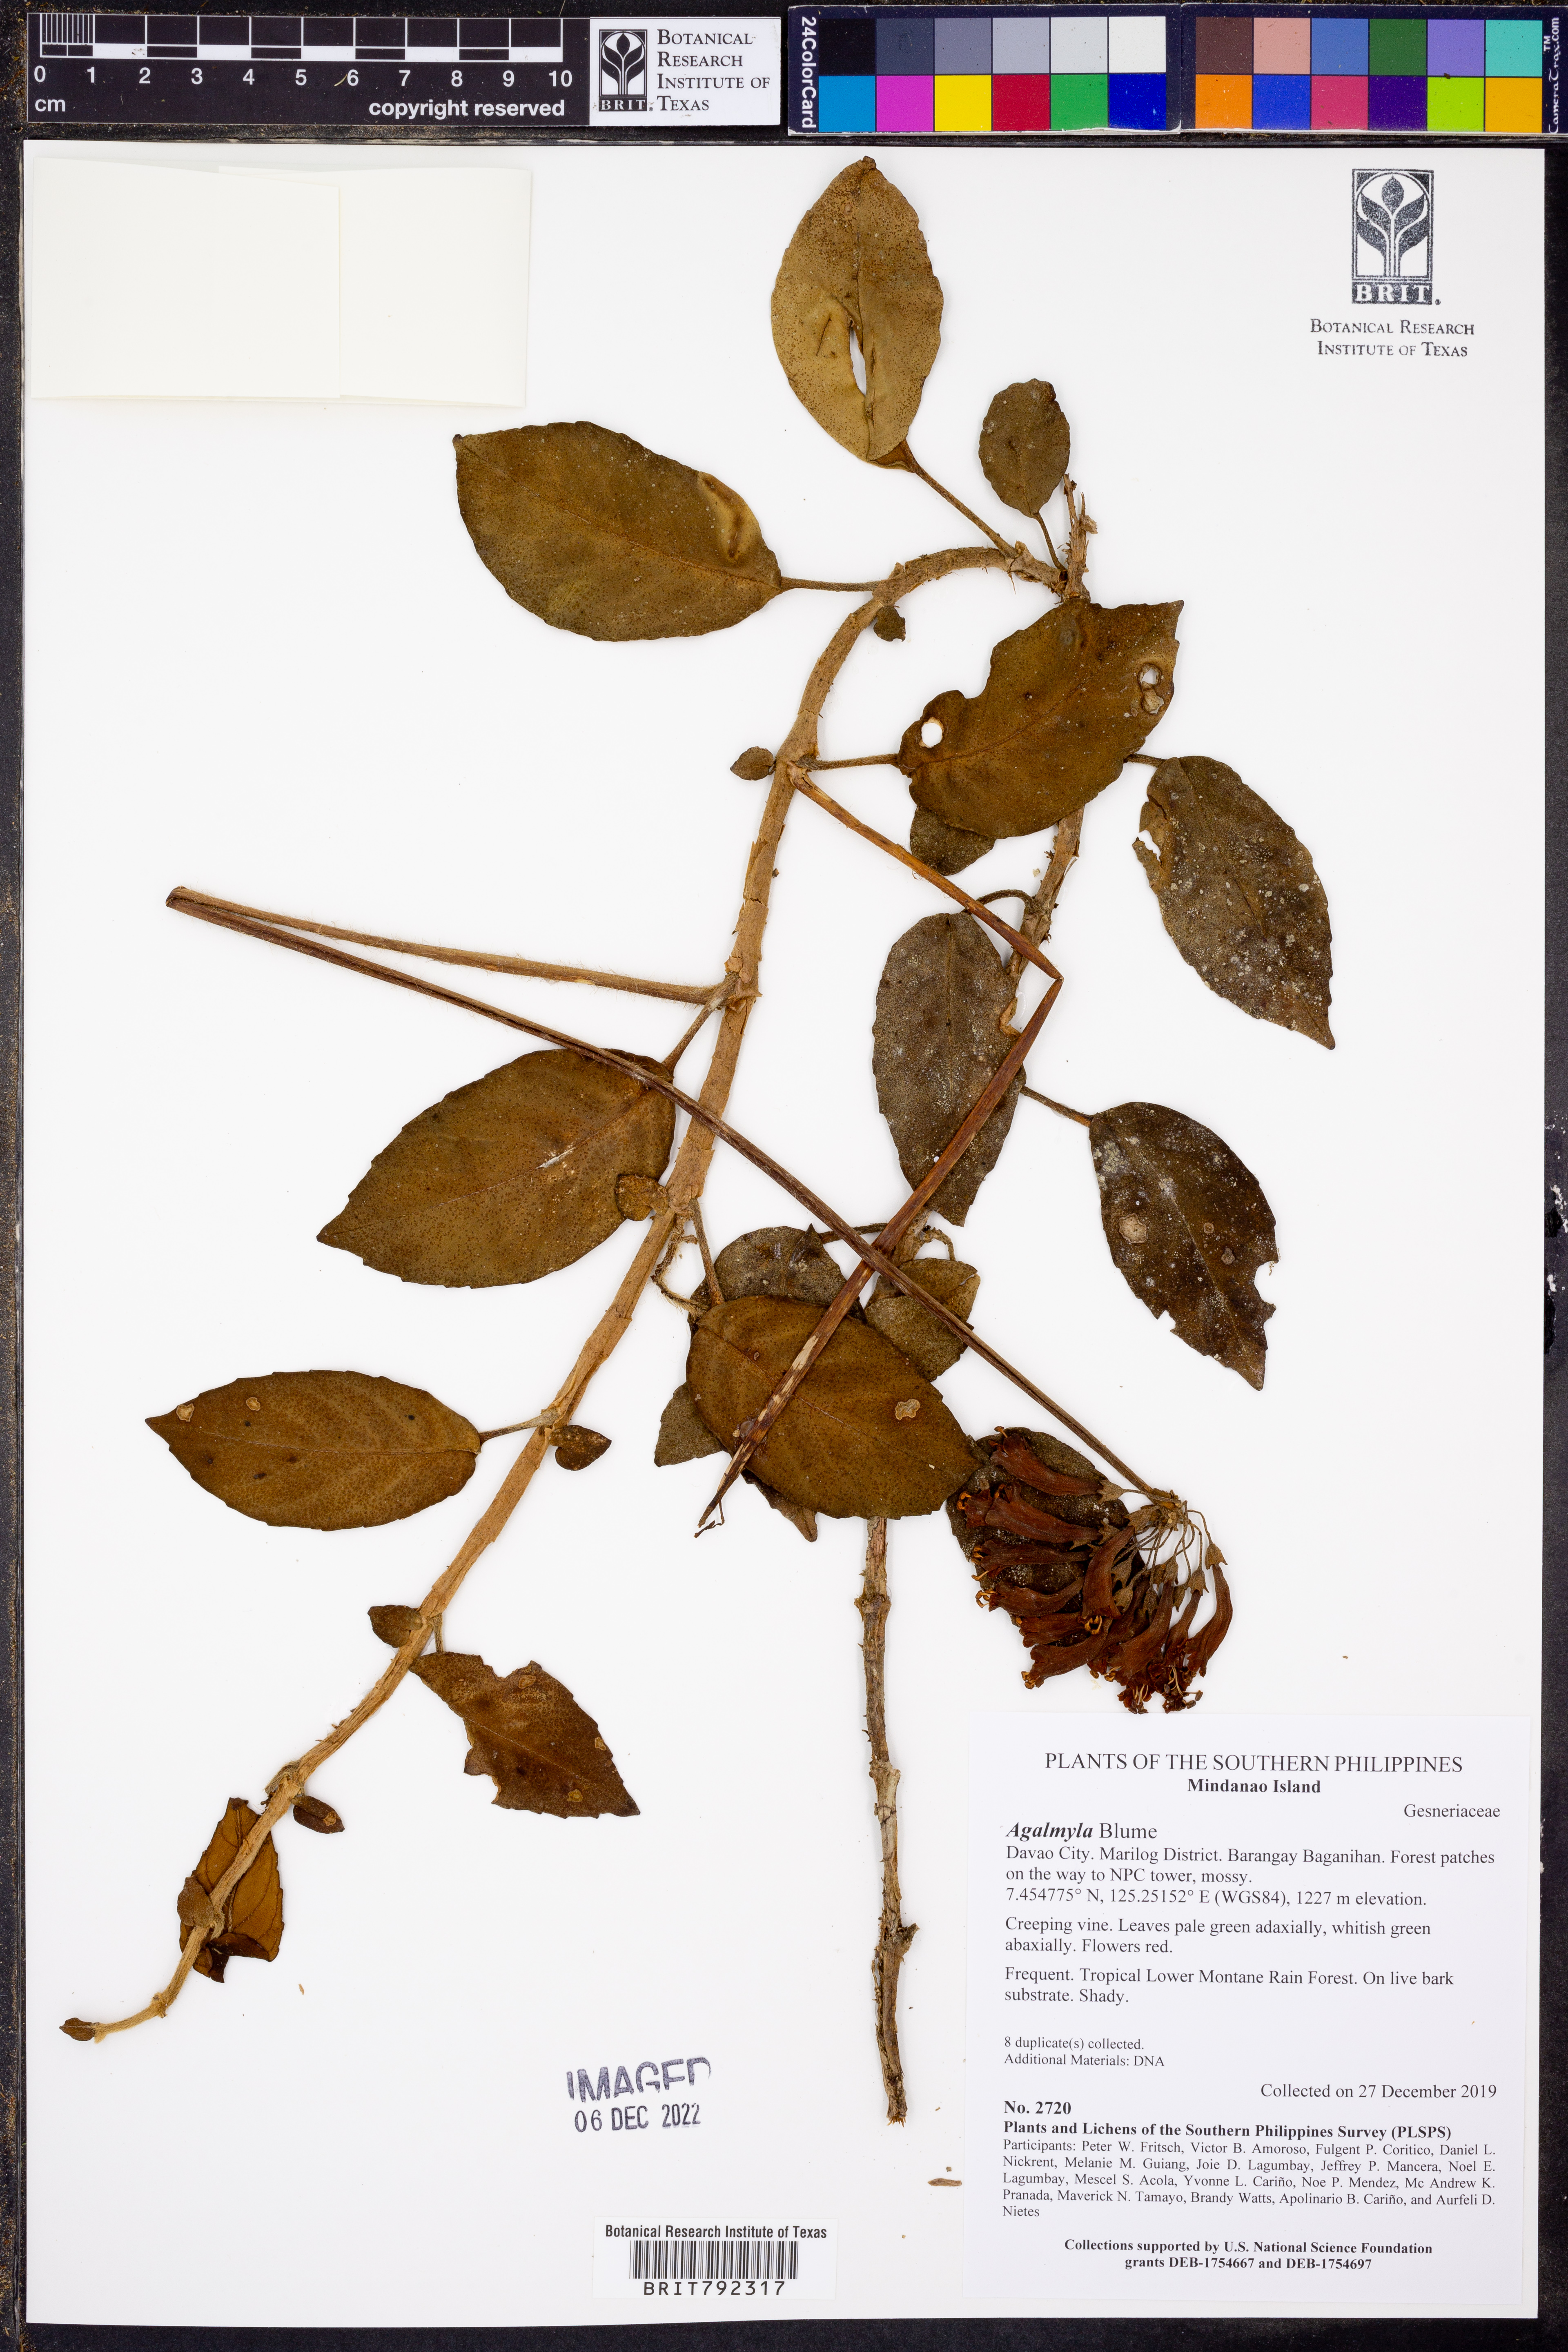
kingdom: Plantae
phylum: Tracheophyta
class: Magnoliopsida
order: Lamiales
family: Gesneriaceae
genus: Agalmyla
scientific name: Agalmyla
